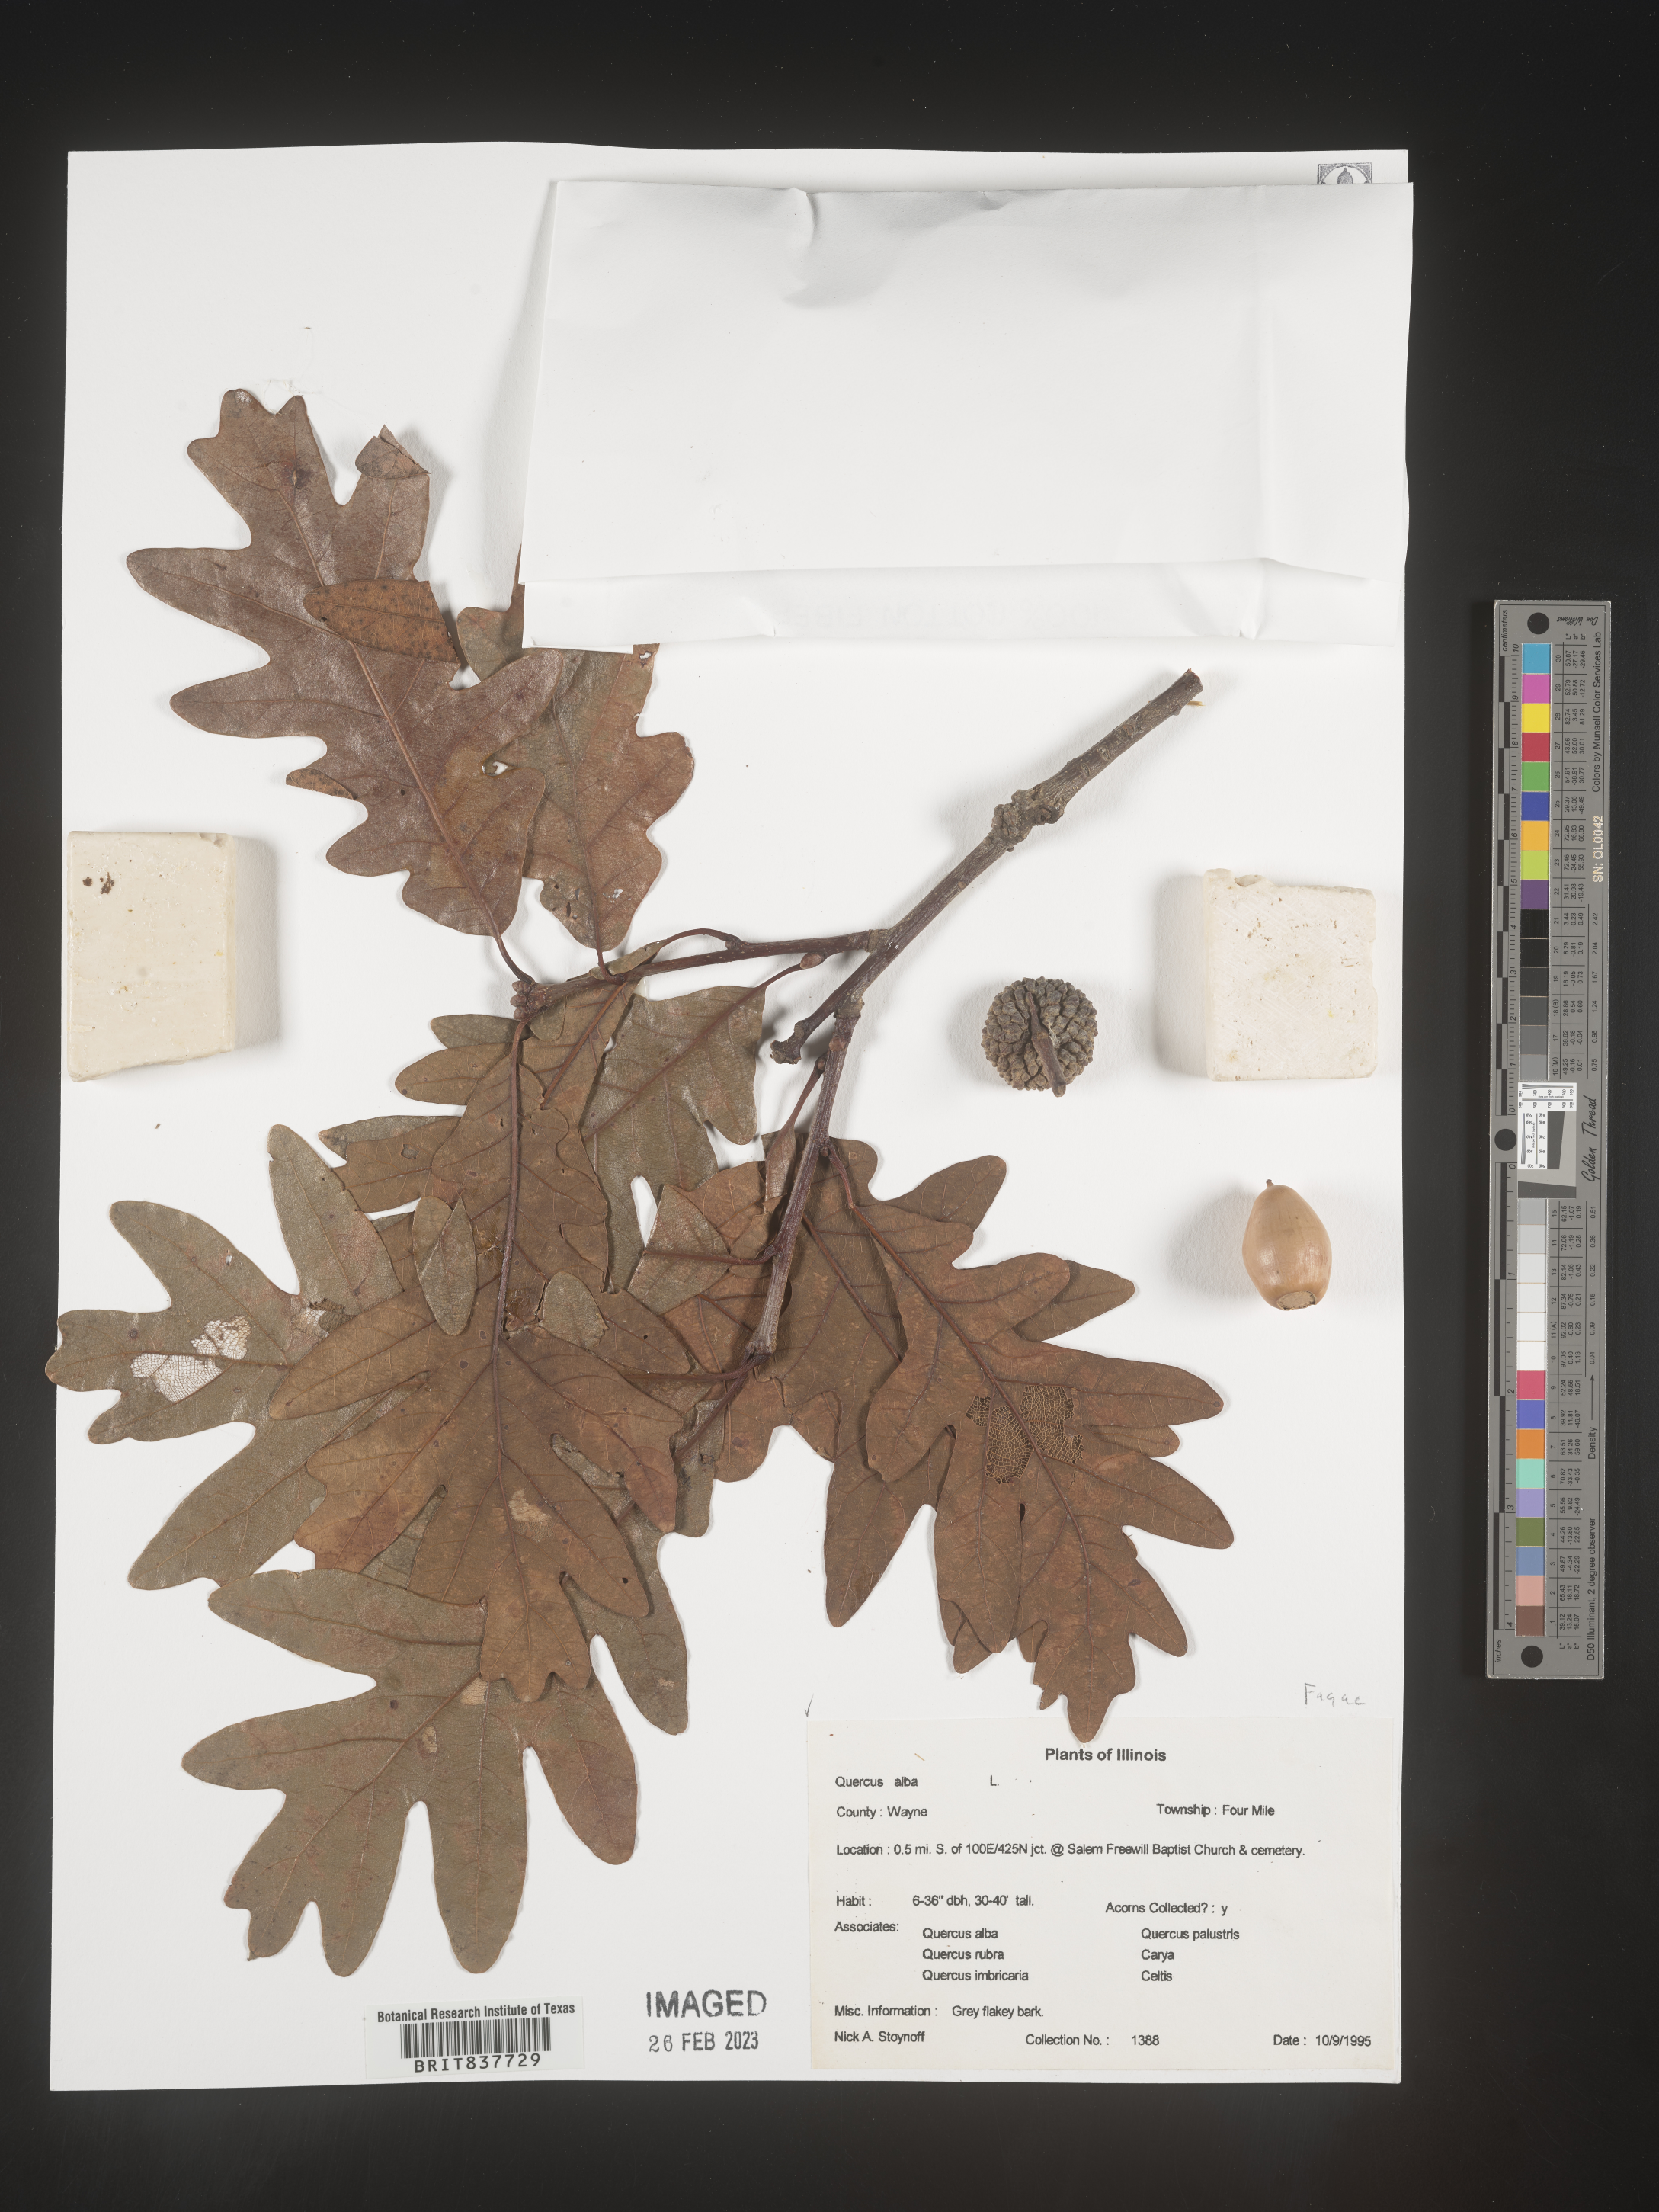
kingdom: Plantae
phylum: Tracheophyta
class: Magnoliopsida
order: Fagales
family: Fagaceae
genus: Quercus
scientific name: Quercus alba
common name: White oak
